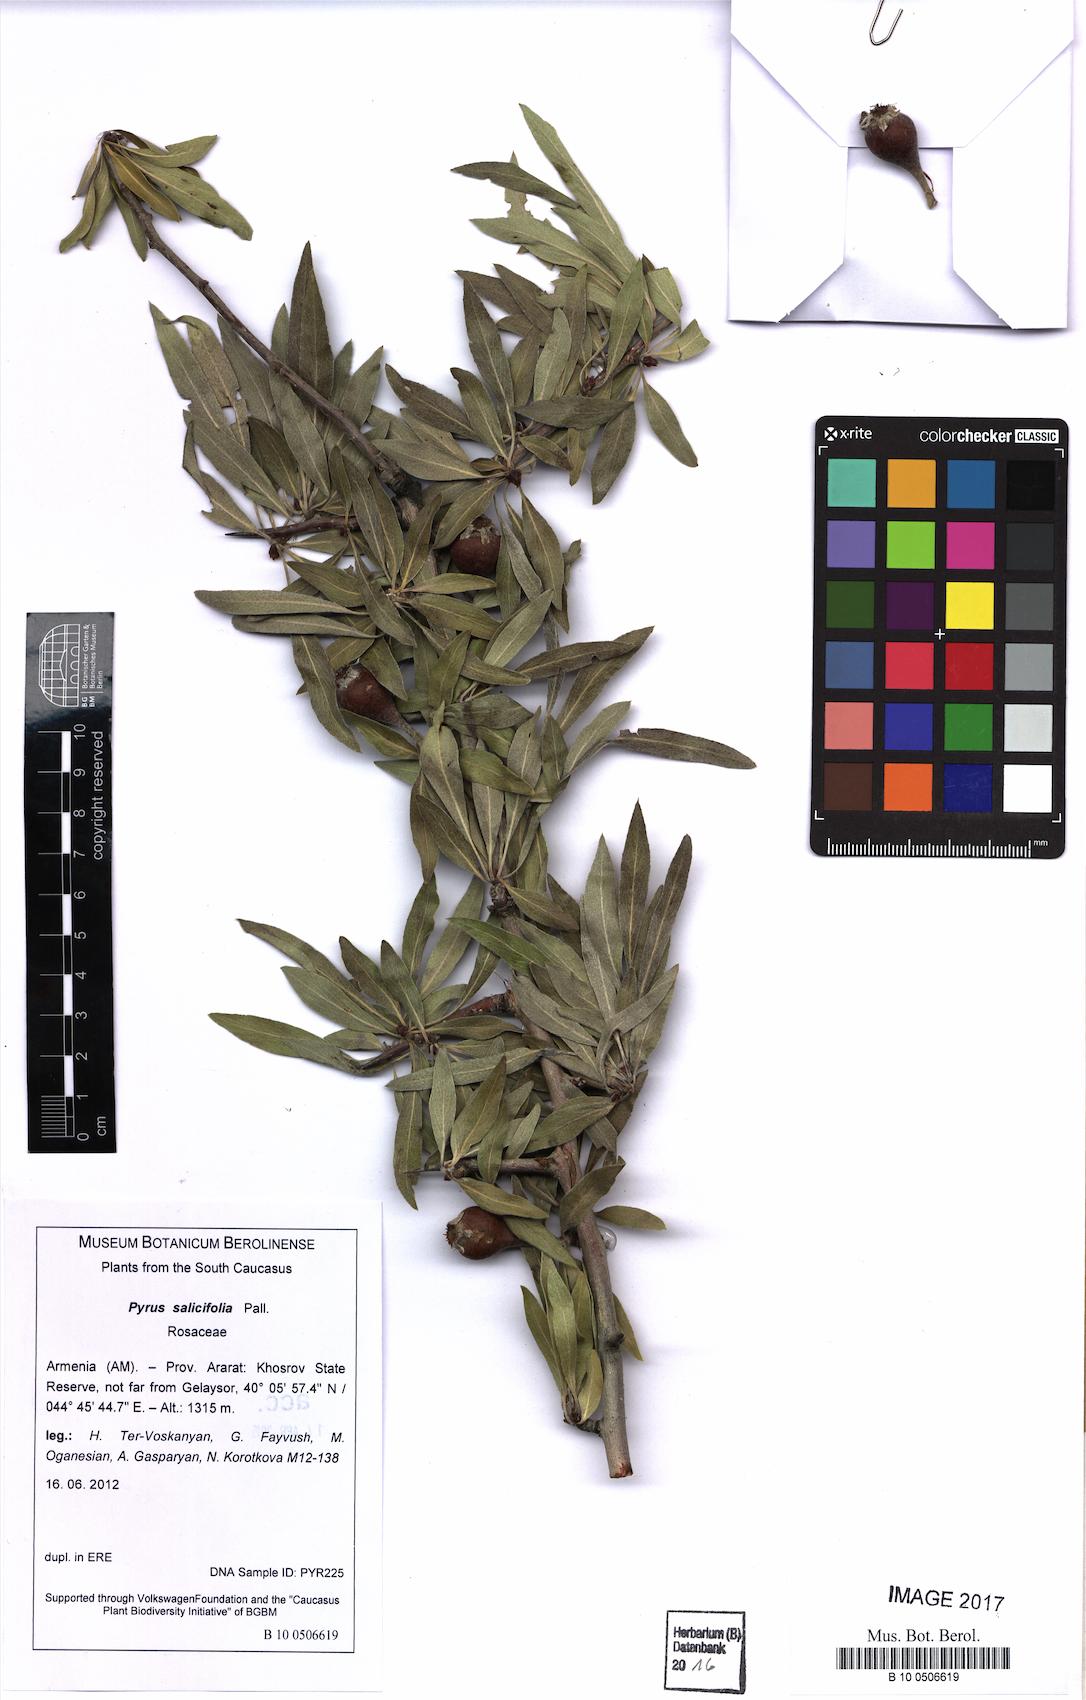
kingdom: Plantae
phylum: Tracheophyta
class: Magnoliopsida
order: Rosales
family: Rosaceae
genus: Pyrus
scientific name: Pyrus salicifolia
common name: Willow-leaved pear
